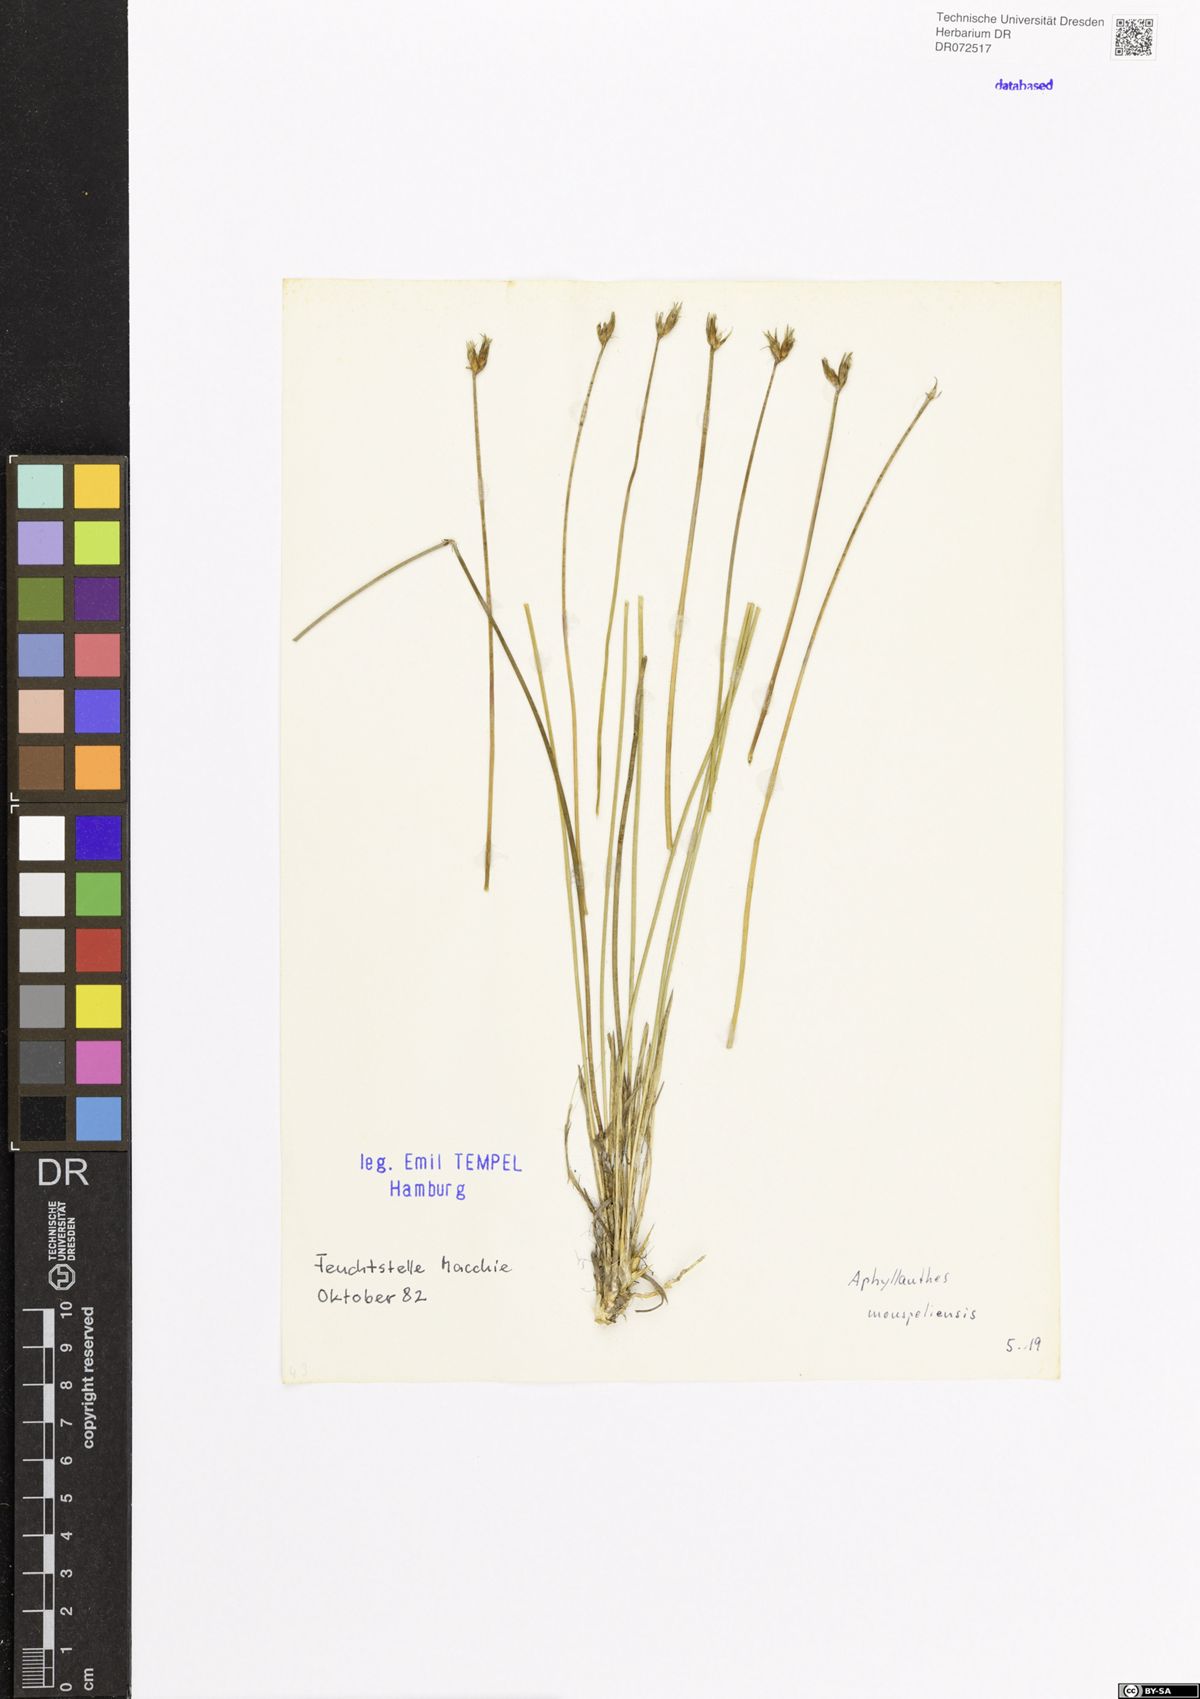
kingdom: Plantae
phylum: Tracheophyta
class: Liliopsida
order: Asparagales
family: Asparagaceae
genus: Aphyllanthes
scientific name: Aphyllanthes monspeliensis
